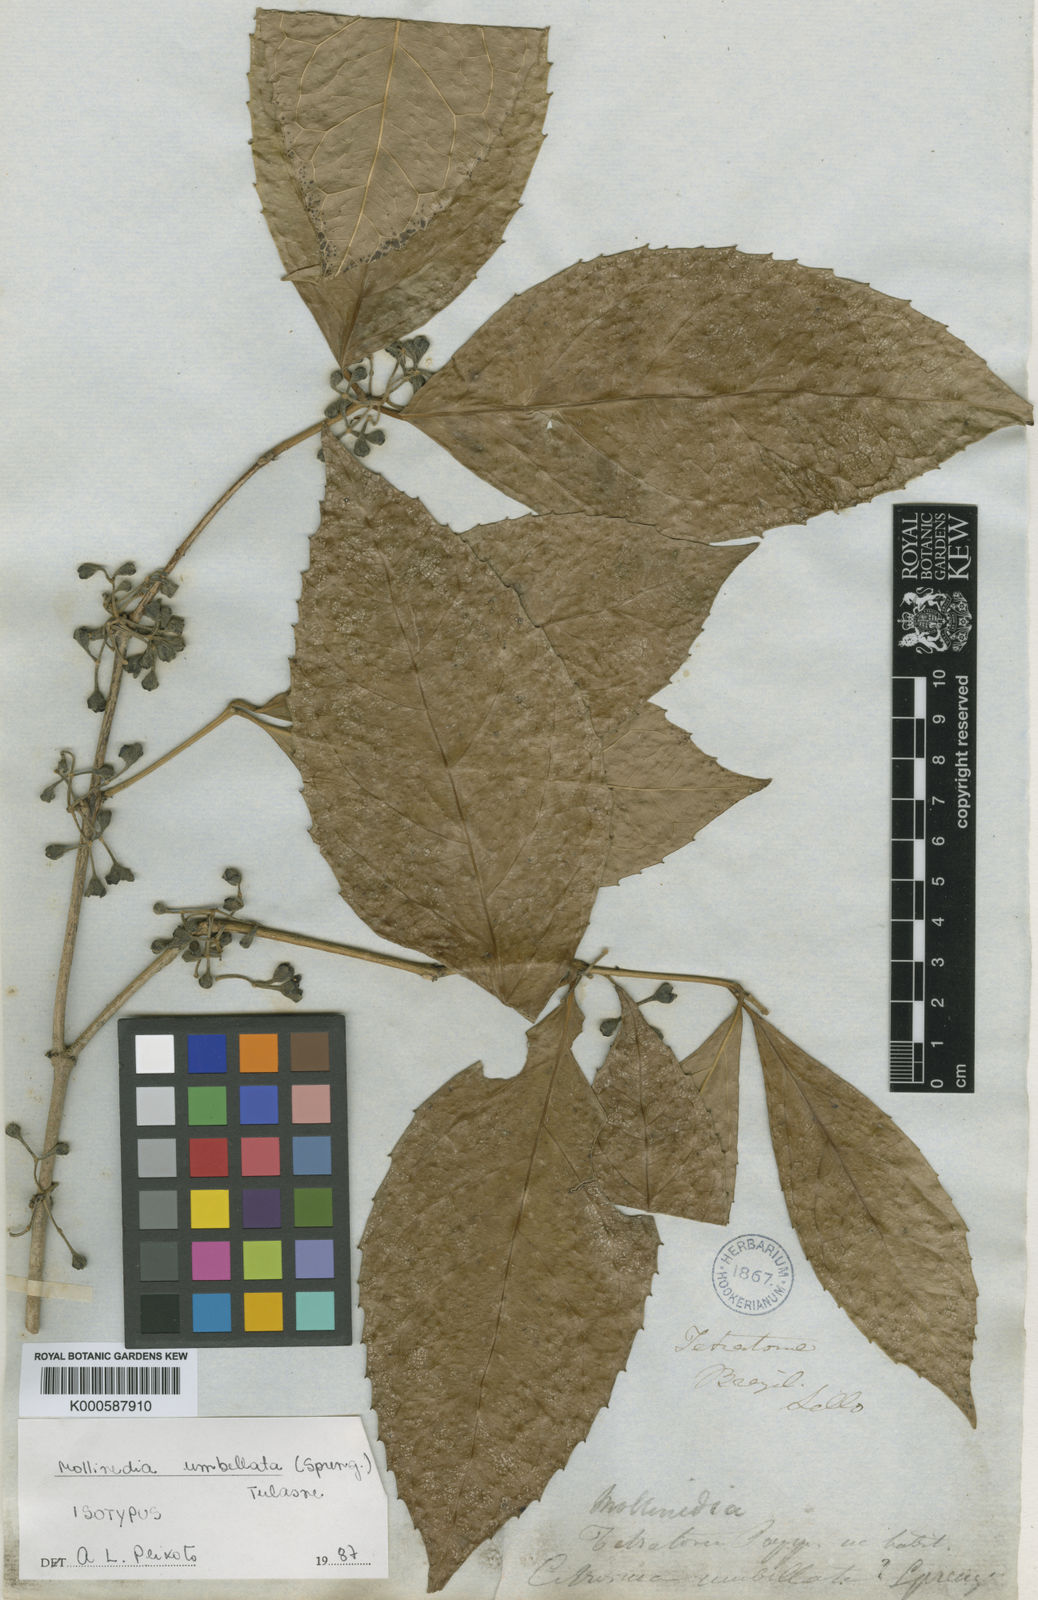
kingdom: Plantae
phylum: Tracheophyta
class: Magnoliopsida
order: Laurales
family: Monimiaceae
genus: Mollinedia
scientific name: Mollinedia ovata
